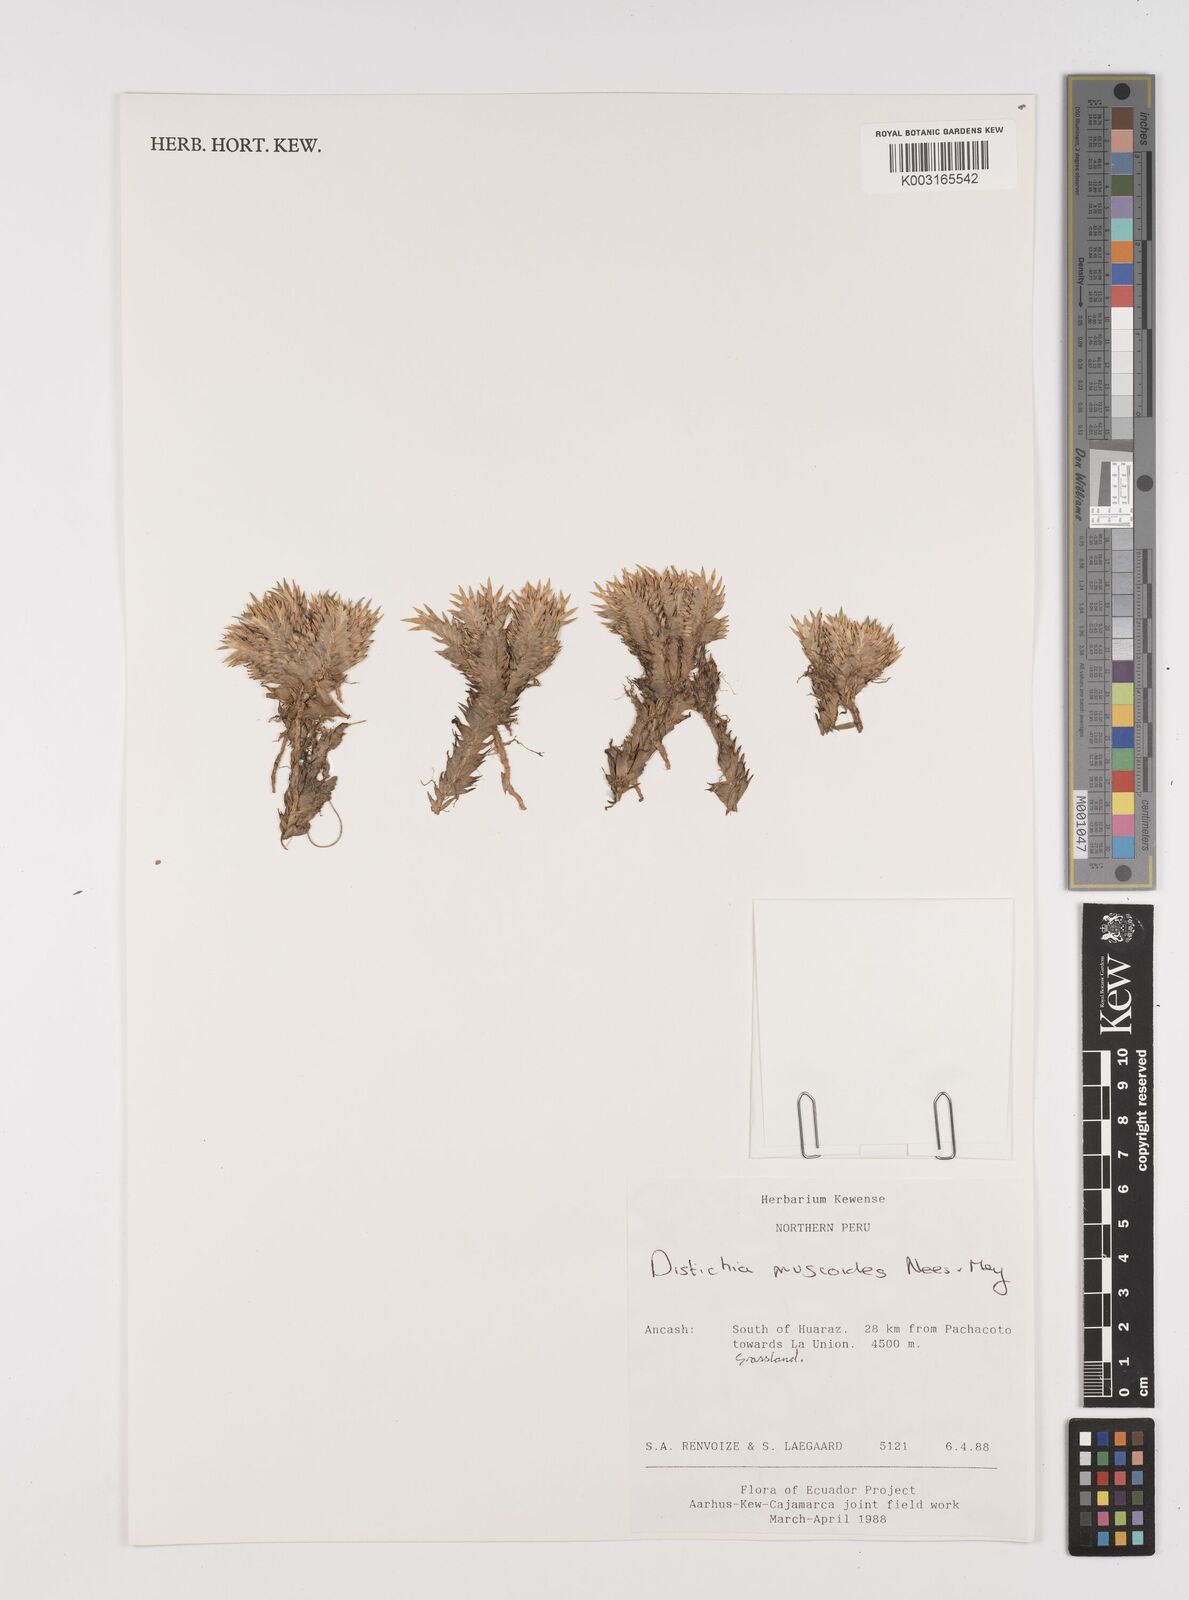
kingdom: Plantae
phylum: Tracheophyta
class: Liliopsida
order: Poales
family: Juncaceae
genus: Distichia
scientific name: Distichia muscoides
